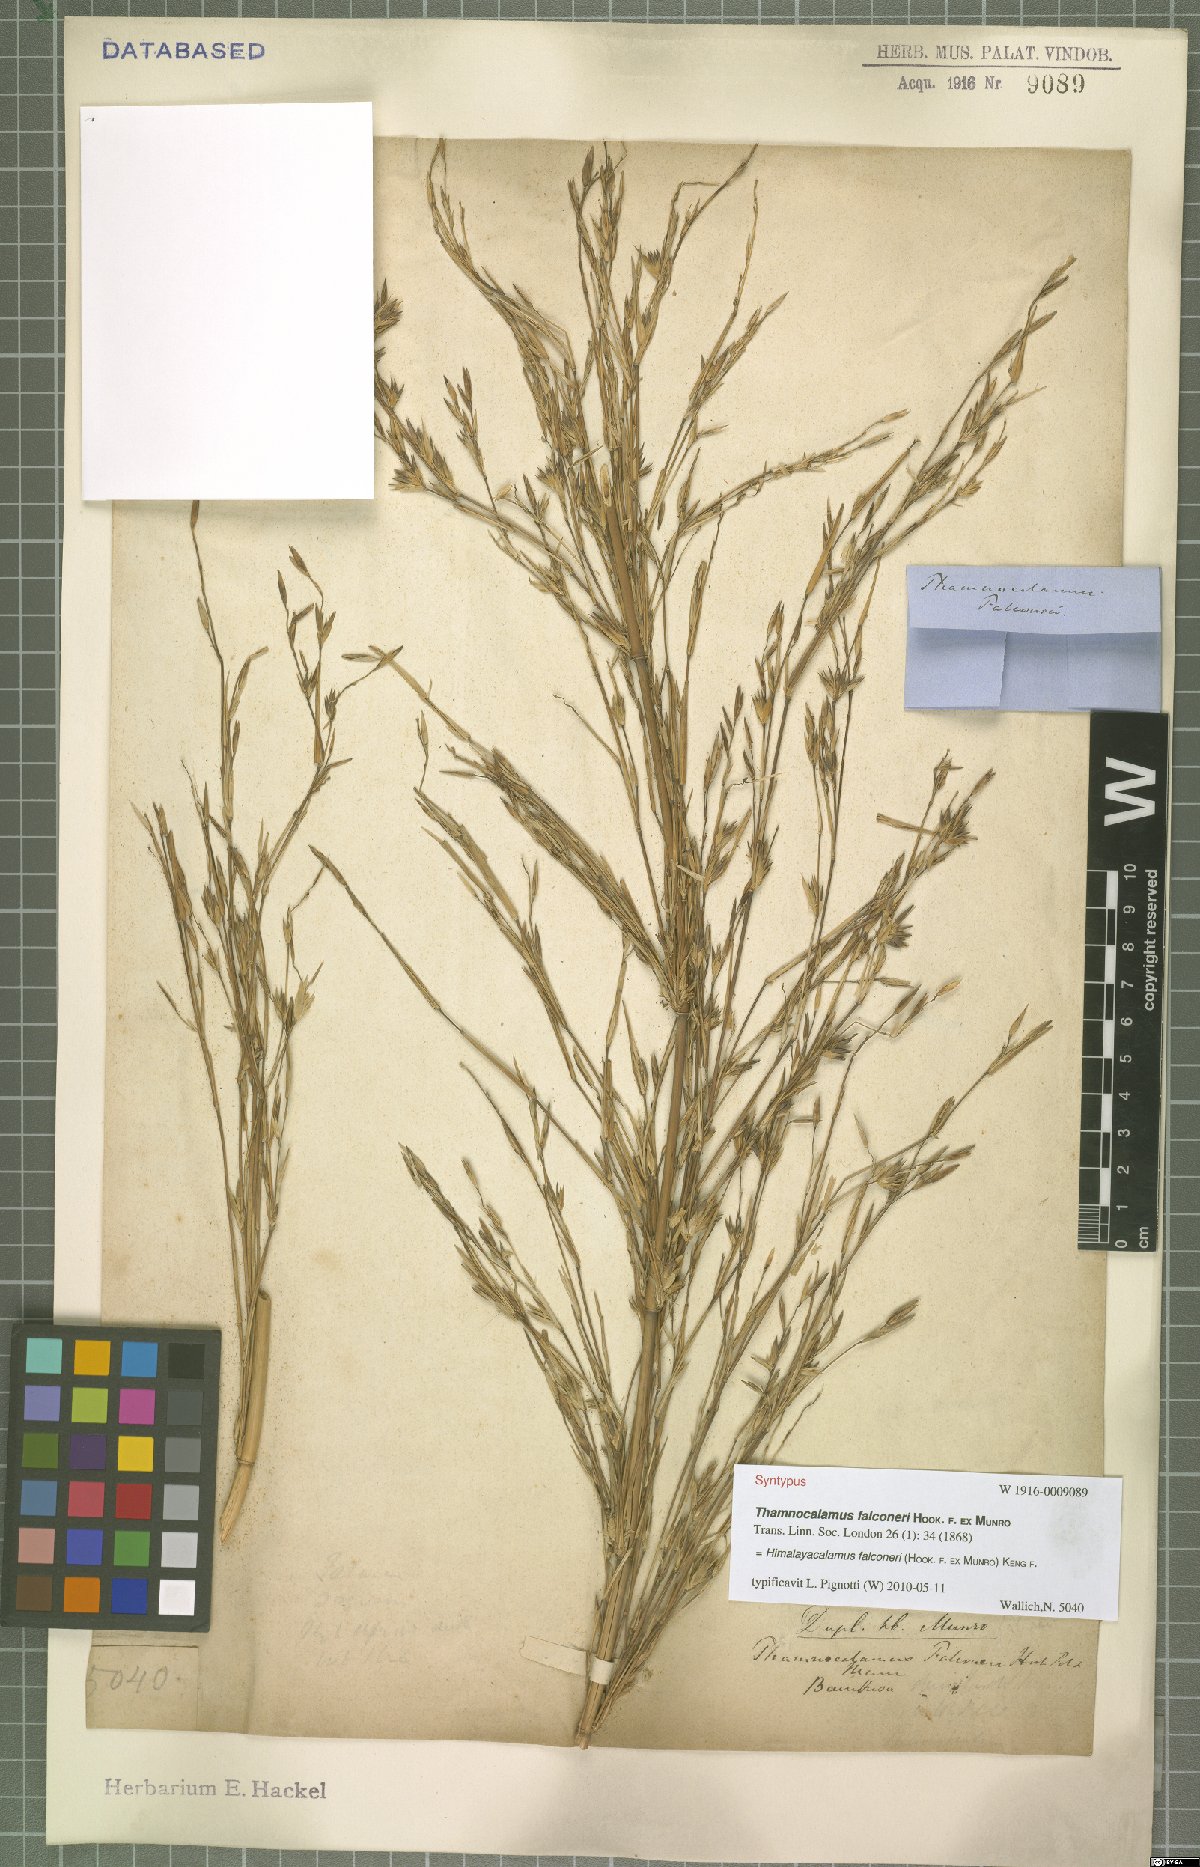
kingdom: Plantae
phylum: Tracheophyta
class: Liliopsida
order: Poales
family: Poaceae
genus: Himalayacalamus
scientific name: Himalayacalamus falconeri
